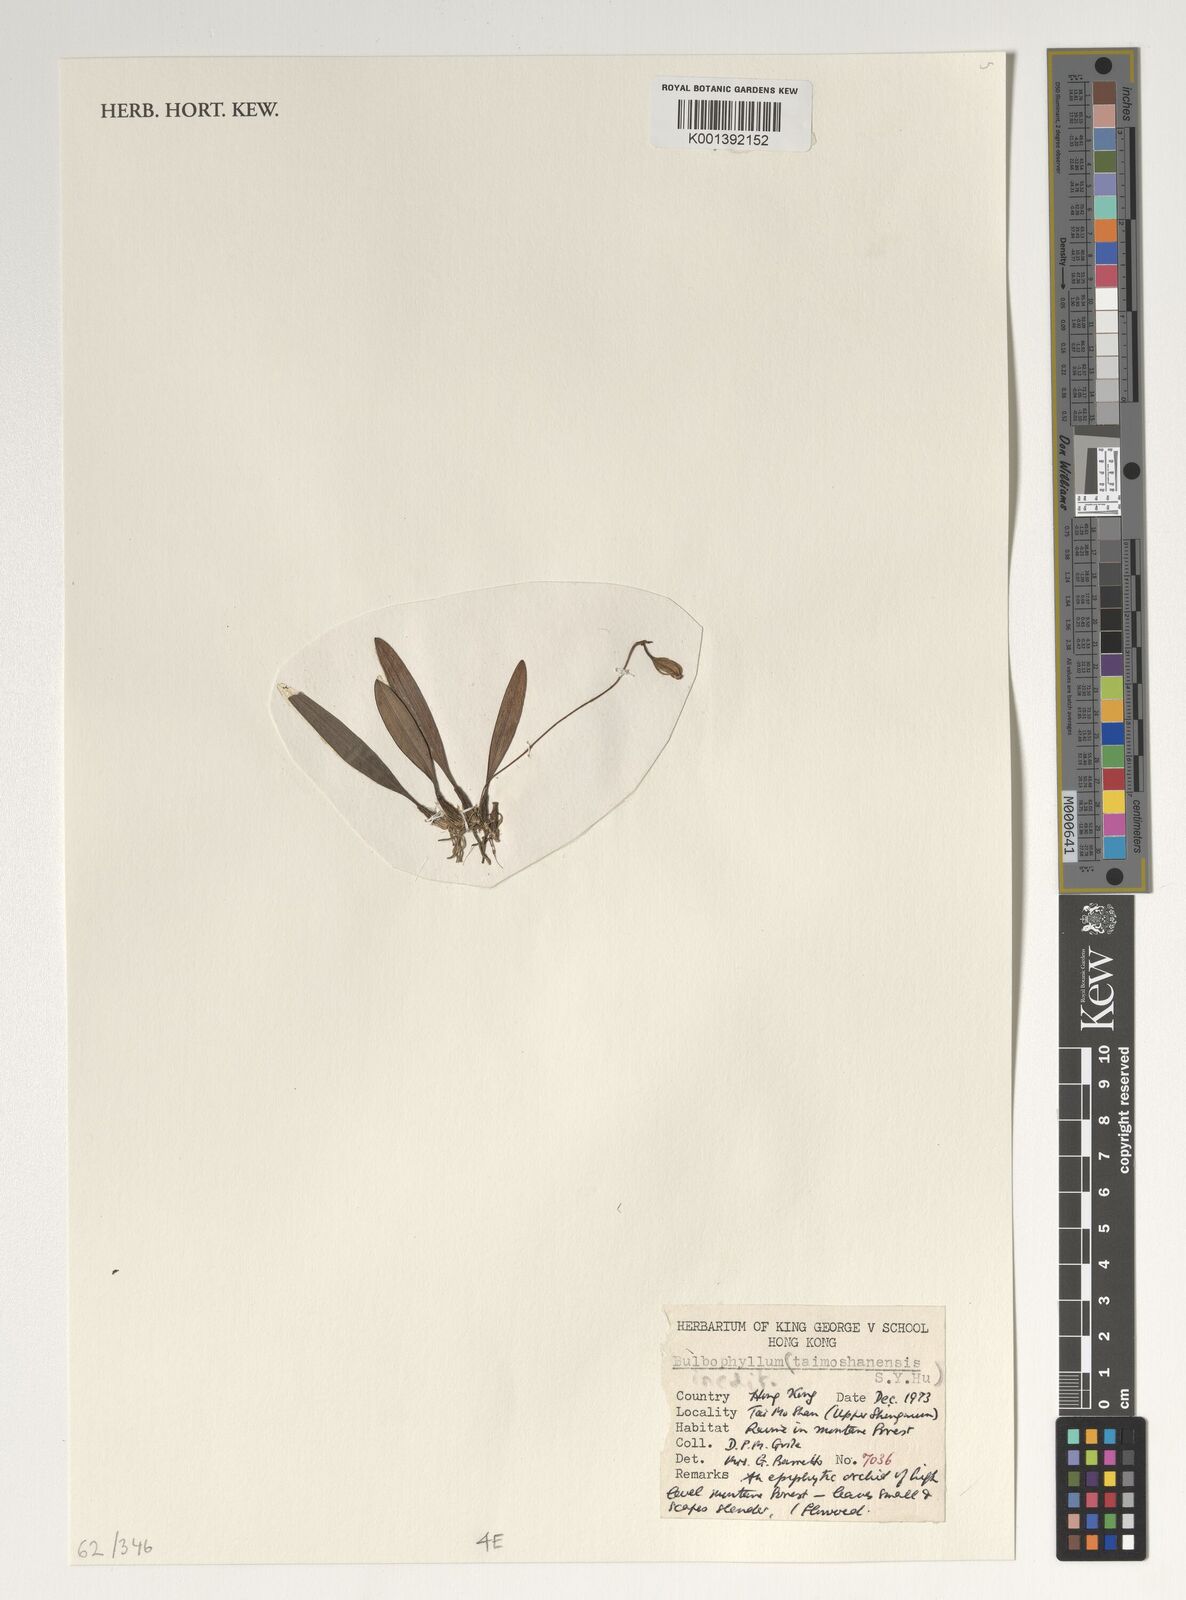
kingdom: Plantae
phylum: Tracheophyta
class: Liliopsida
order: Asparagales
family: Orchidaceae
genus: Bulbophyllum
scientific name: Bulbophyllum
